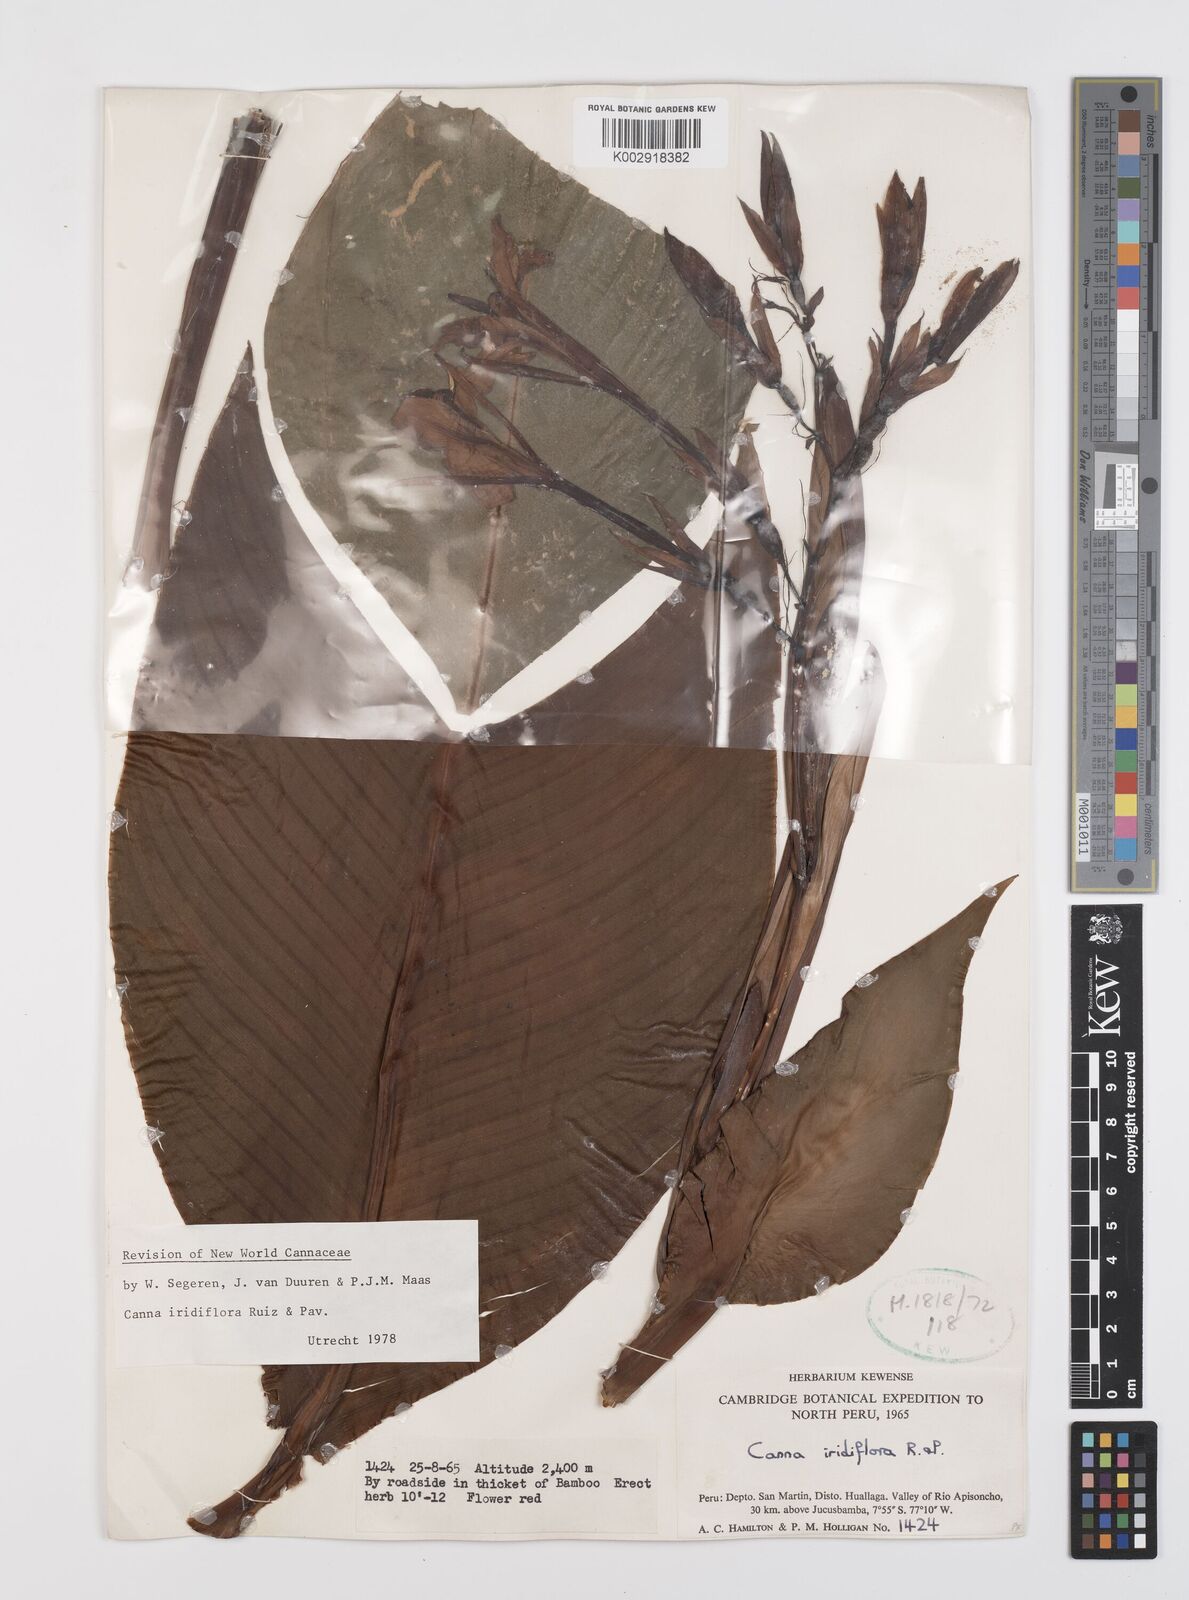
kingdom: Plantae
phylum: Tracheophyta
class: Liliopsida
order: Zingiberales
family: Cannaceae
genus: Canna
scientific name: Canna iridiflora
